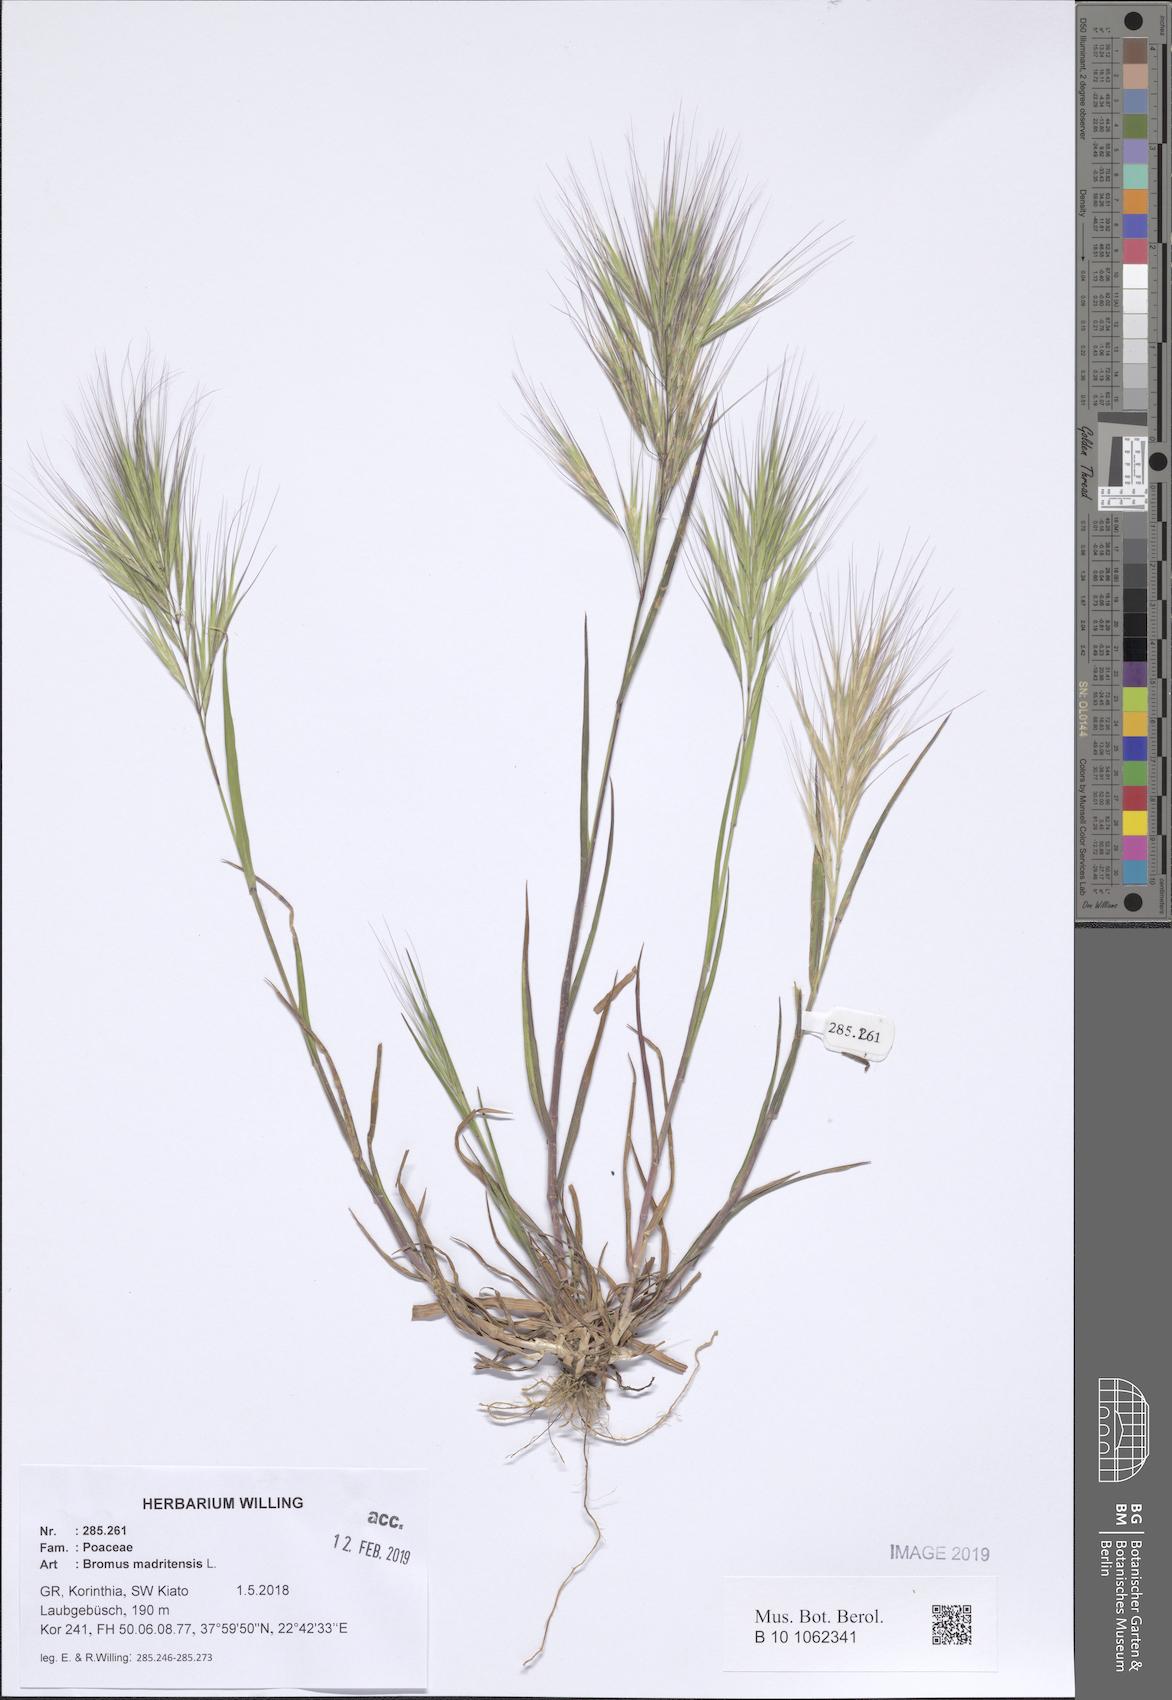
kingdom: Plantae
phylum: Tracheophyta
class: Liliopsida
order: Poales
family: Poaceae
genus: Bromus
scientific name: Bromus madritensis
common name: Compact brome
